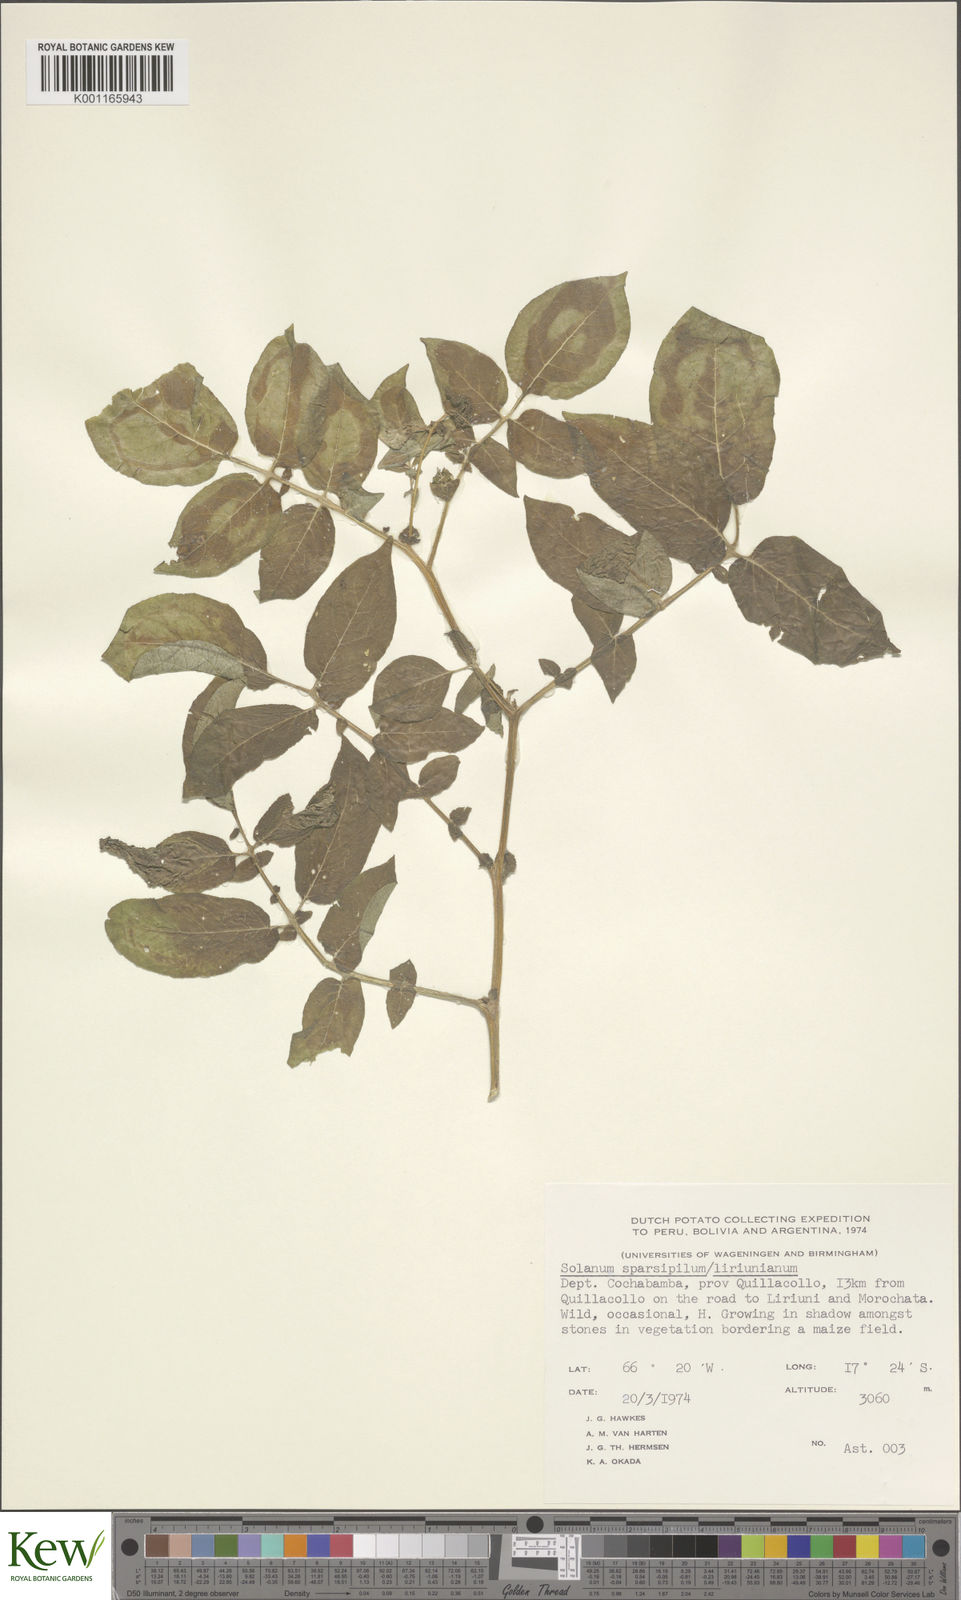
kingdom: Plantae
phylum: Tracheophyta
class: Magnoliopsida
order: Solanales
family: Solanaceae
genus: Solanum
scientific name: Solanum brevicaule
